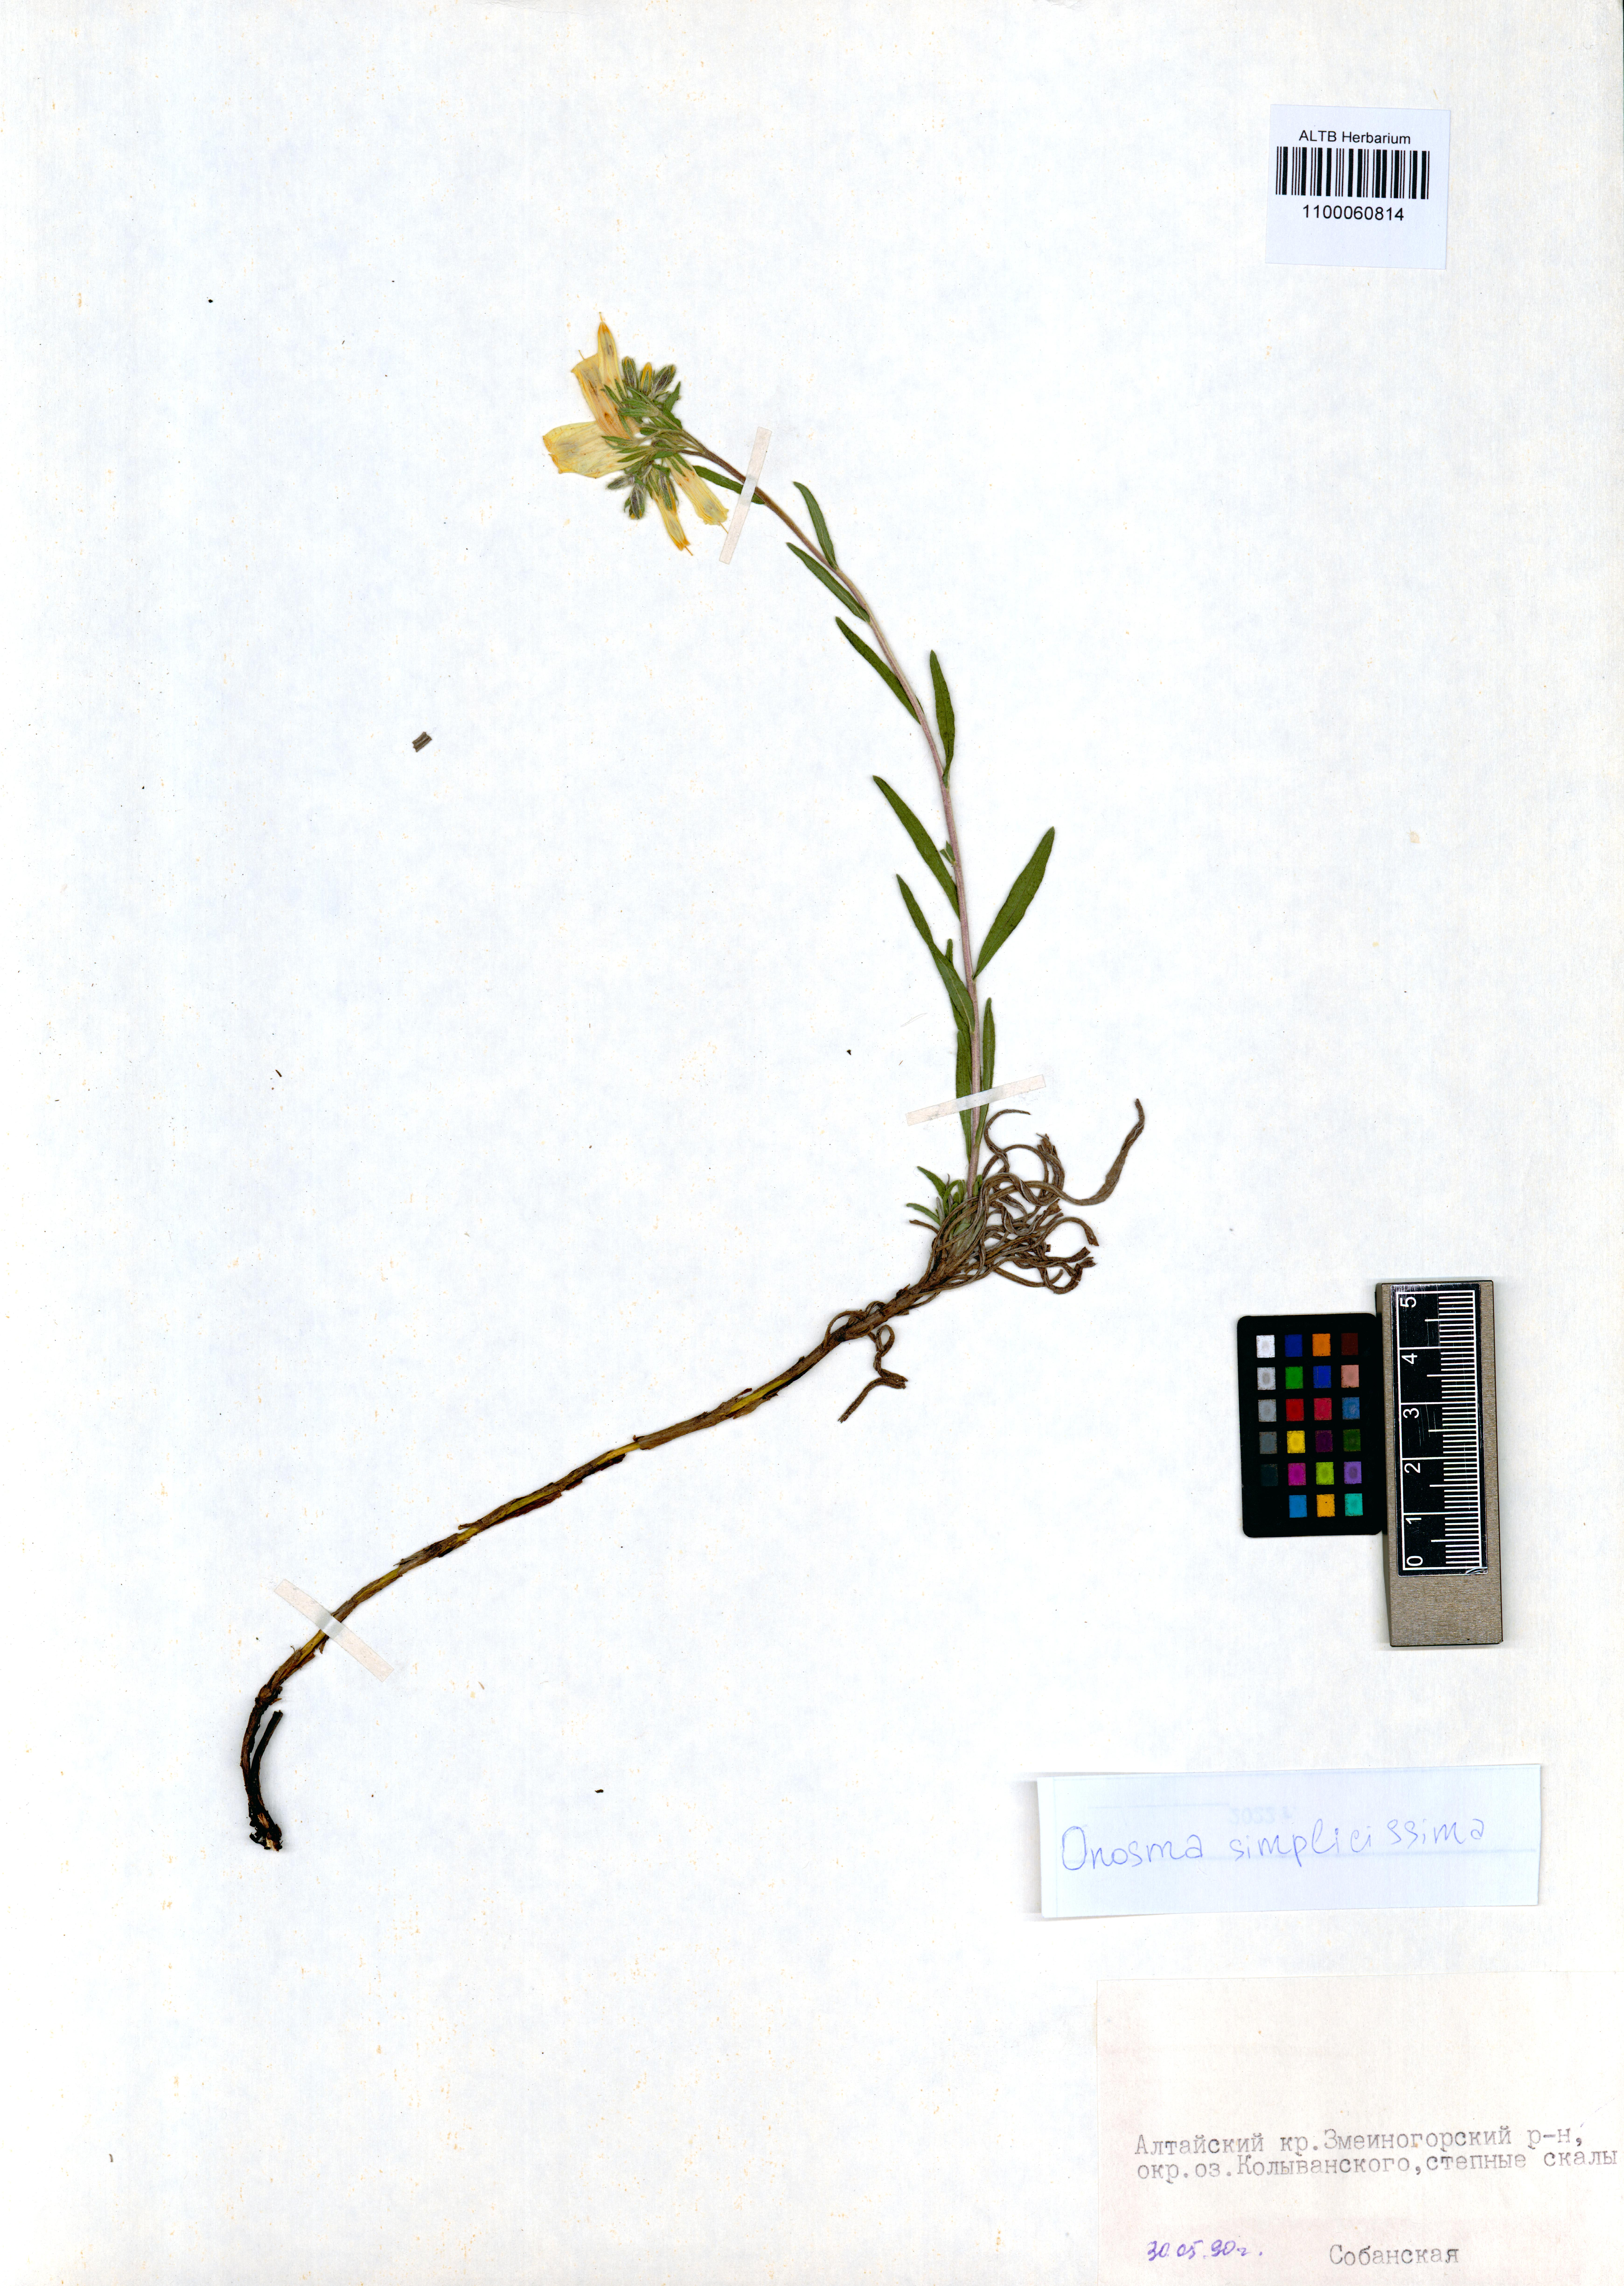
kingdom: Plantae
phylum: Tracheophyta
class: Magnoliopsida
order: Boraginales
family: Boraginaceae
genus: Onosma
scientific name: Onosma simplicissima
